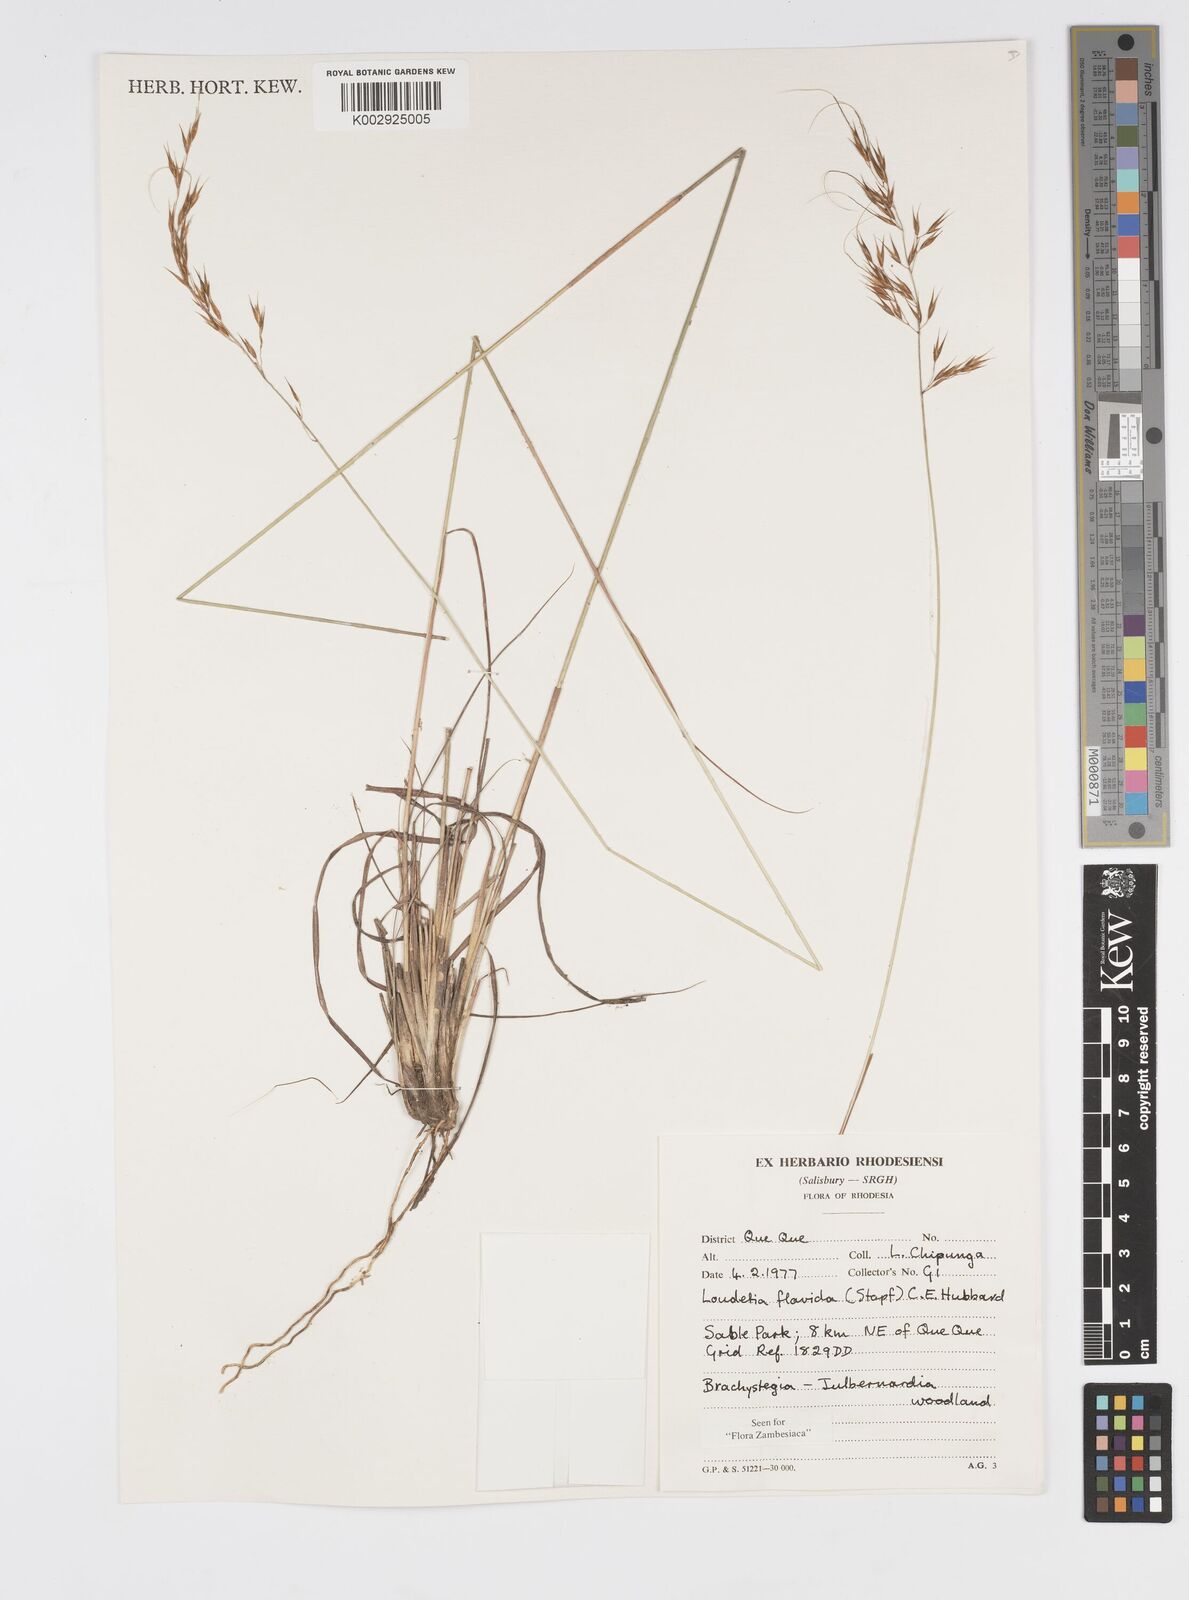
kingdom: Plantae
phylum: Tracheophyta
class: Liliopsida
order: Poales
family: Poaceae
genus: Loudetia
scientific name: Loudetia flavida
